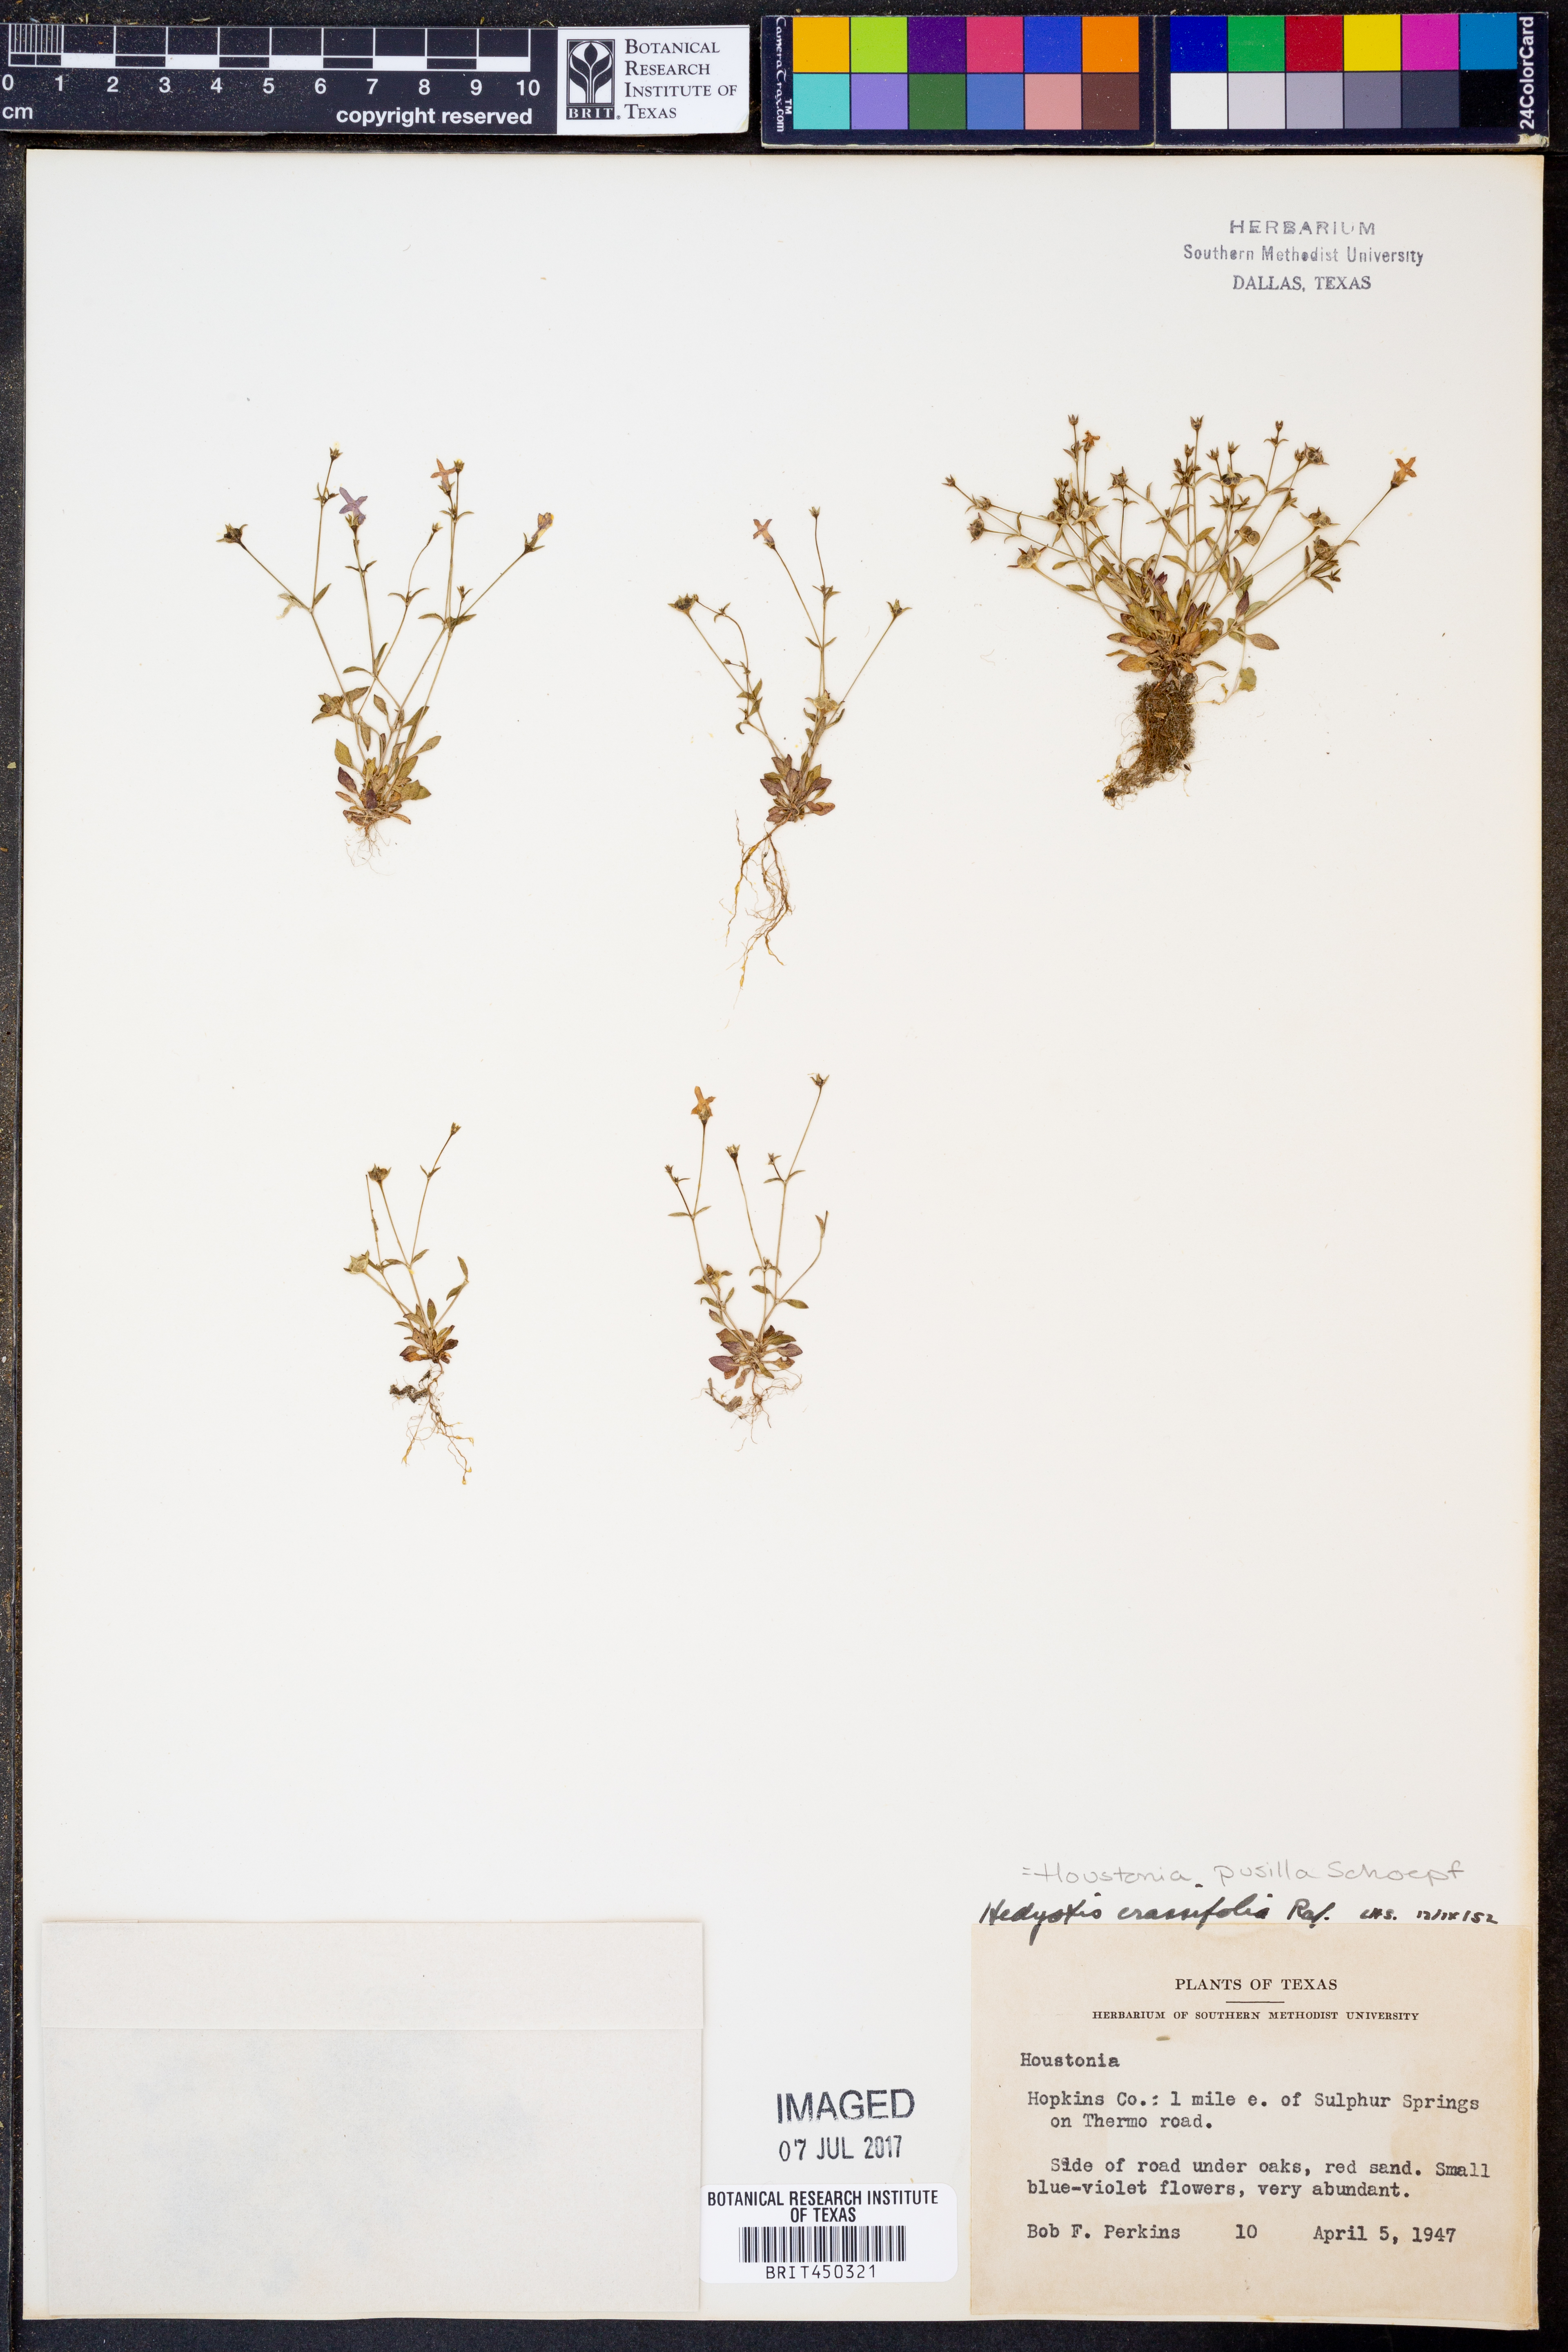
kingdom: Plantae
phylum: Tracheophyta
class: Magnoliopsida
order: Gentianales
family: Rubiaceae
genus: Houstonia
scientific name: Houstonia pusilla
